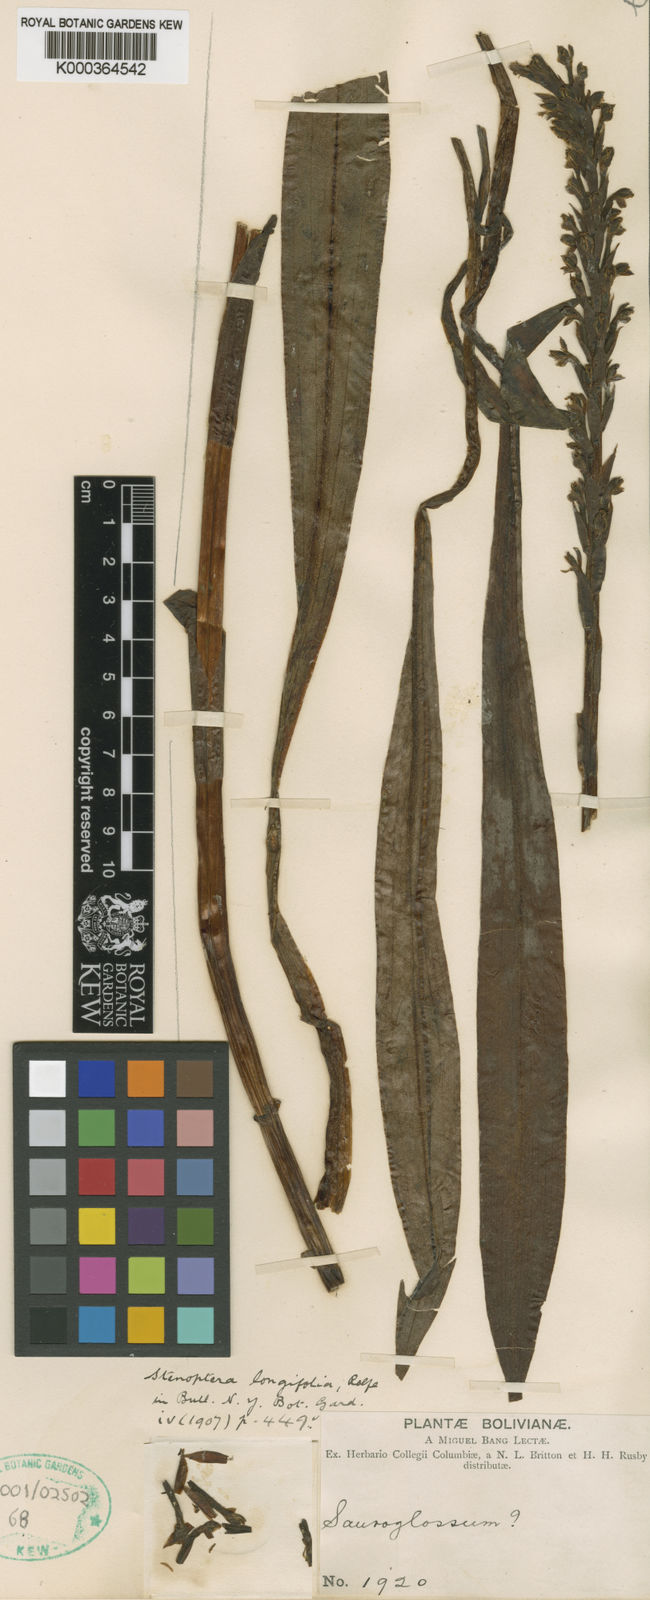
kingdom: Plantae
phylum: Tracheophyta
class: Liliopsida
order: Asparagales
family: Orchidaceae
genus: Gomphichis
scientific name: Gomphichis longifolia
